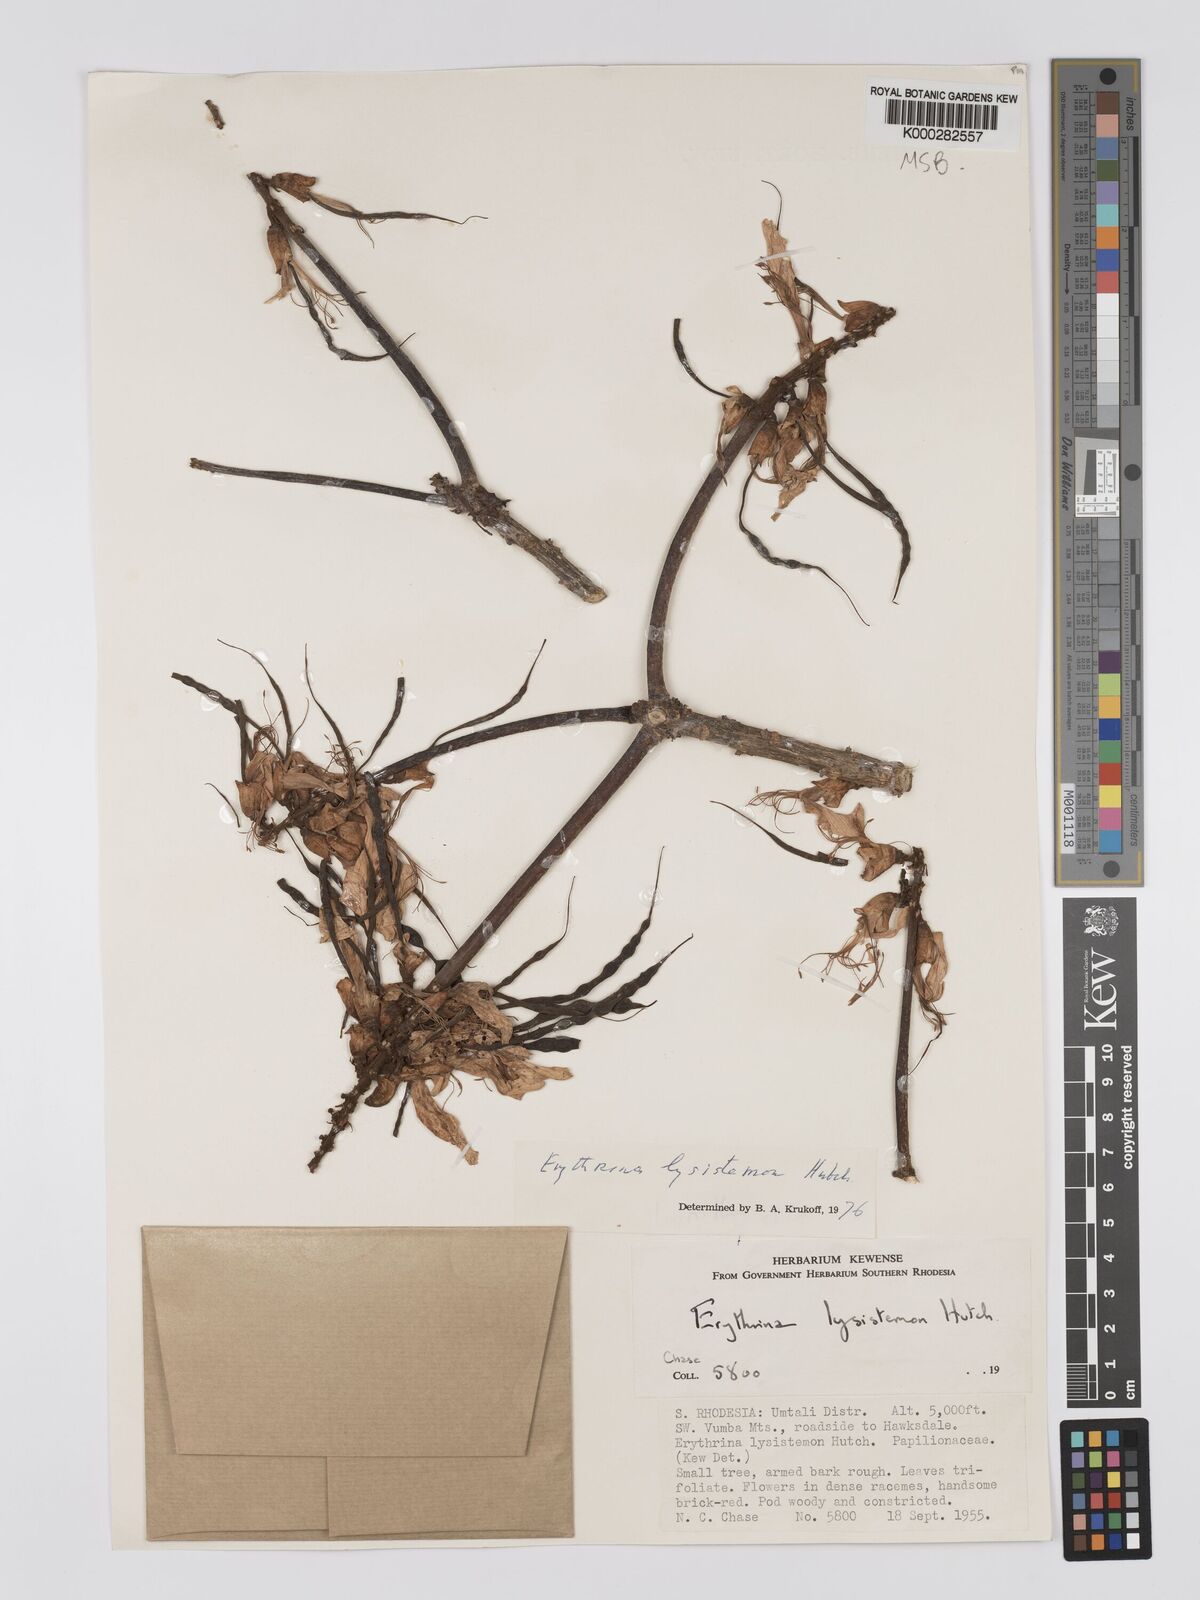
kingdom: Plantae
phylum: Tracheophyta
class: Magnoliopsida
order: Fabales
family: Fabaceae
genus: Erythrina
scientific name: Erythrina lysistemon
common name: Common coral tree
